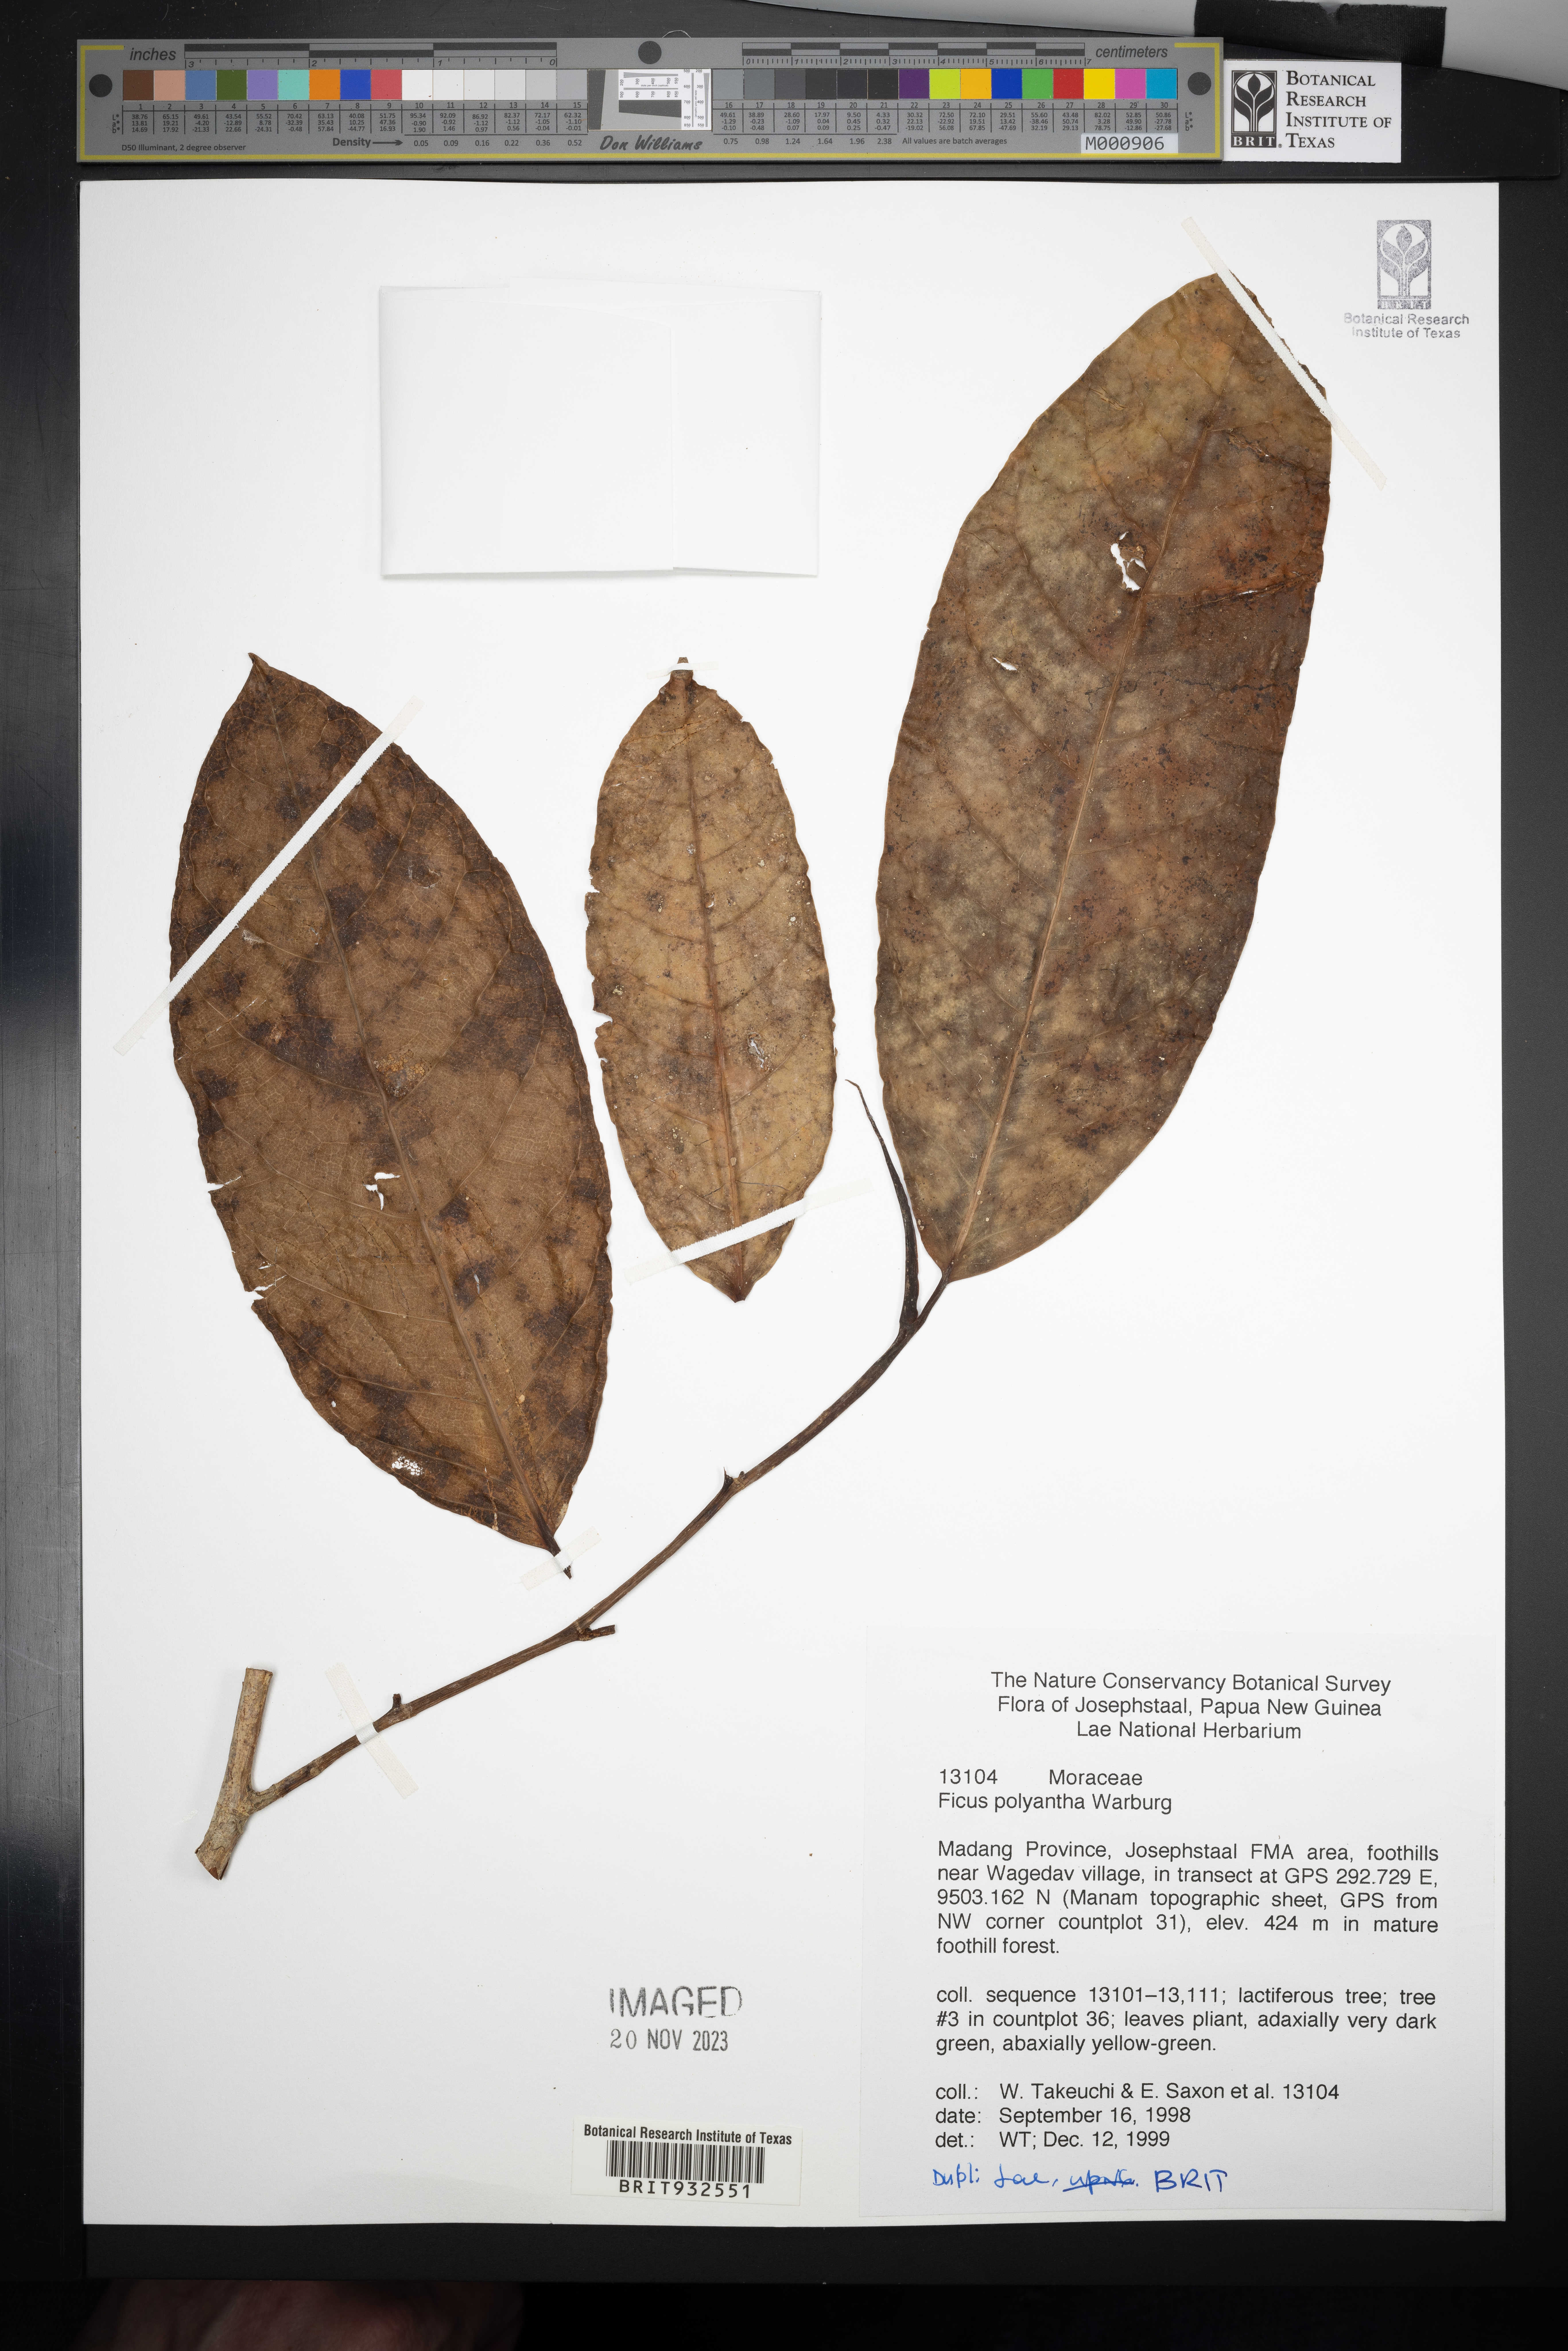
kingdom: Plantae
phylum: Tracheophyta
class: Magnoliopsida
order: Rosales
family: Moraceae
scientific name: Moraceae
